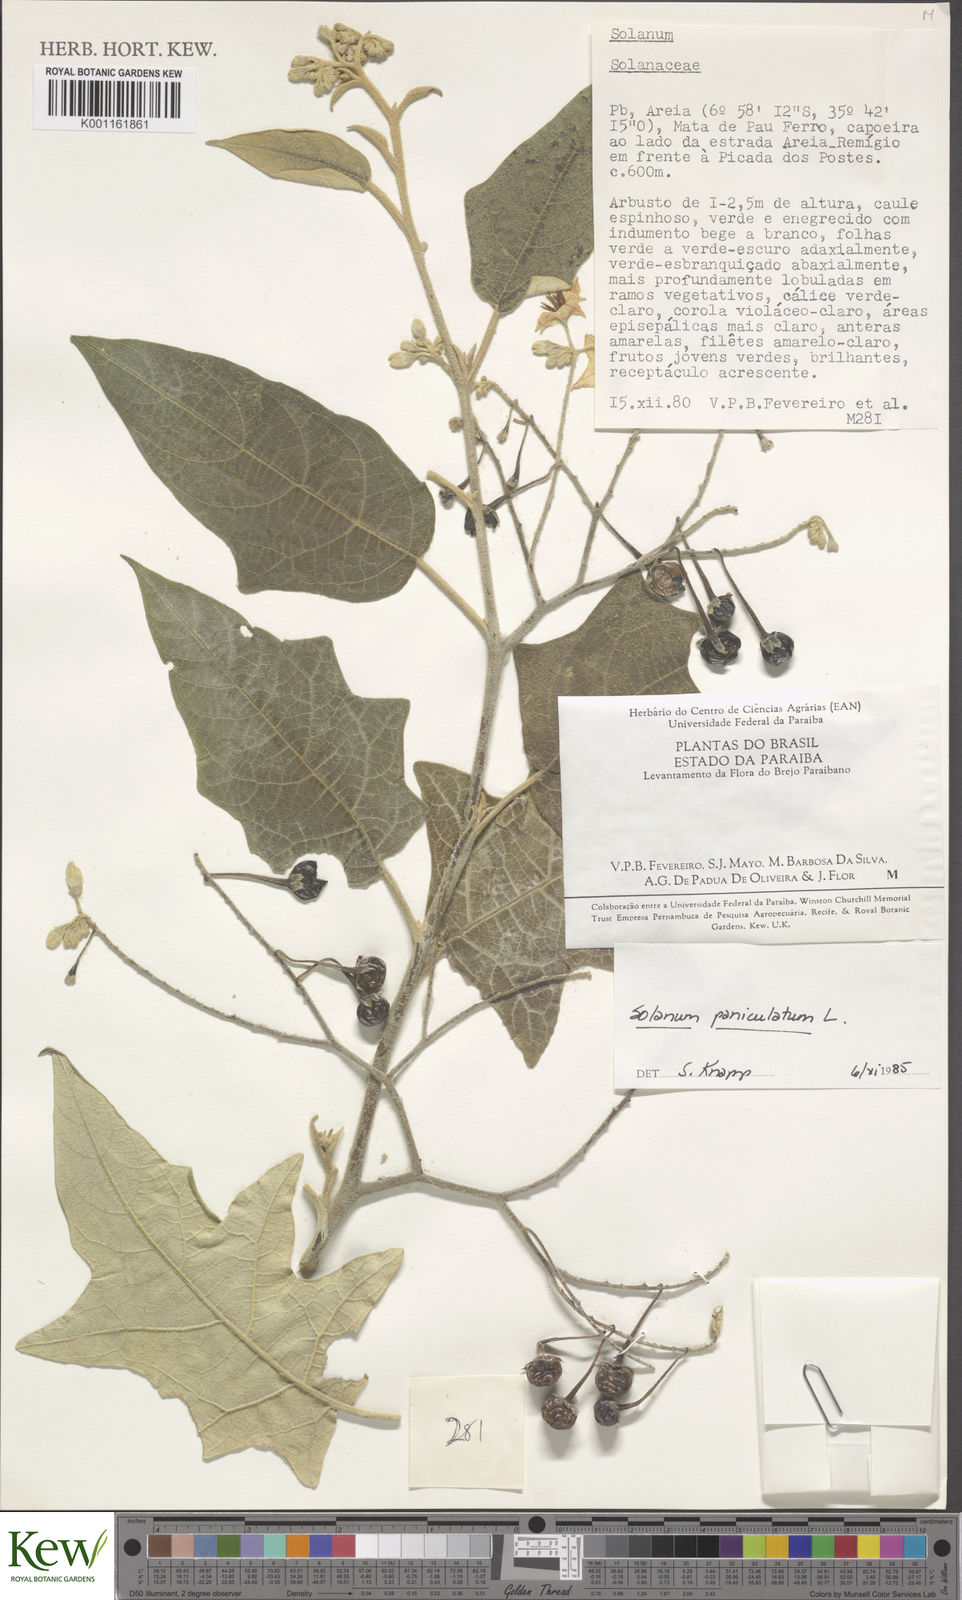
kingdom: Plantae
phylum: Tracheophyta
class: Magnoliopsida
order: Solanales
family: Solanaceae
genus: Solanum
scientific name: Solanum paniculatum
